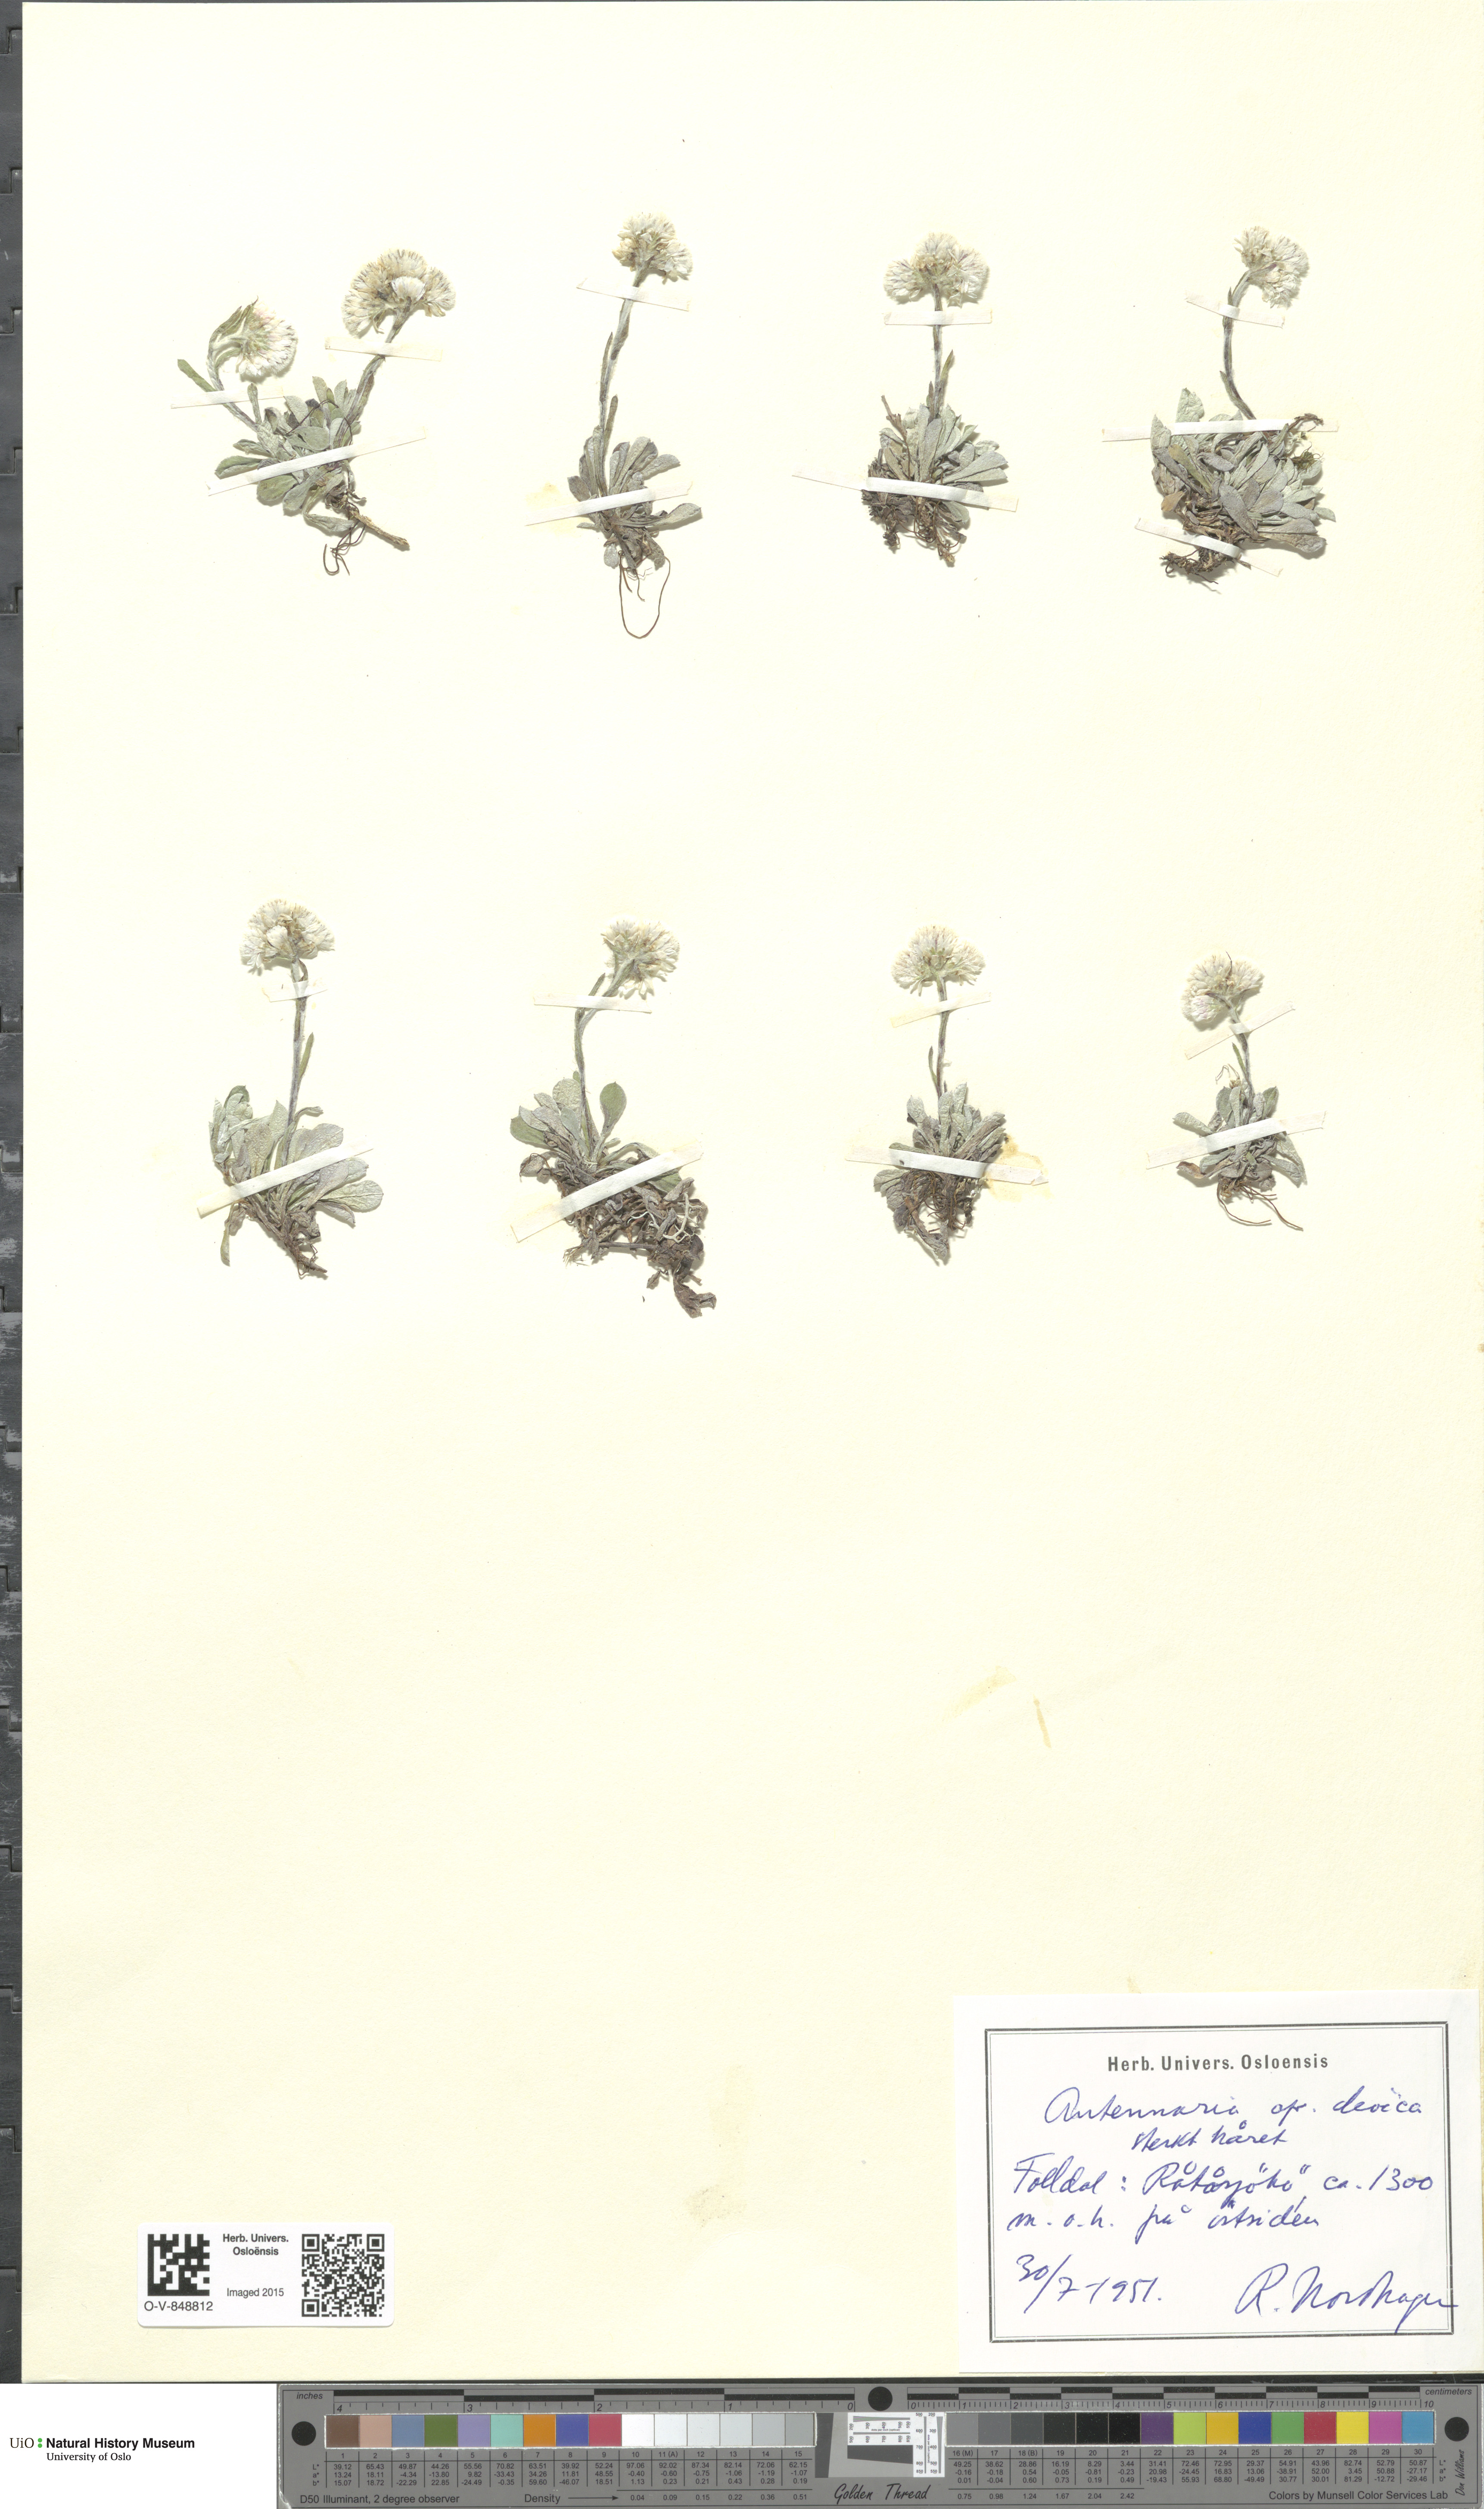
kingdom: Plantae
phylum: Tracheophyta
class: Magnoliopsida
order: Asterales
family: Asteraceae
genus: Antennaria
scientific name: Antennaria dioica
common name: Mountain everlasting
